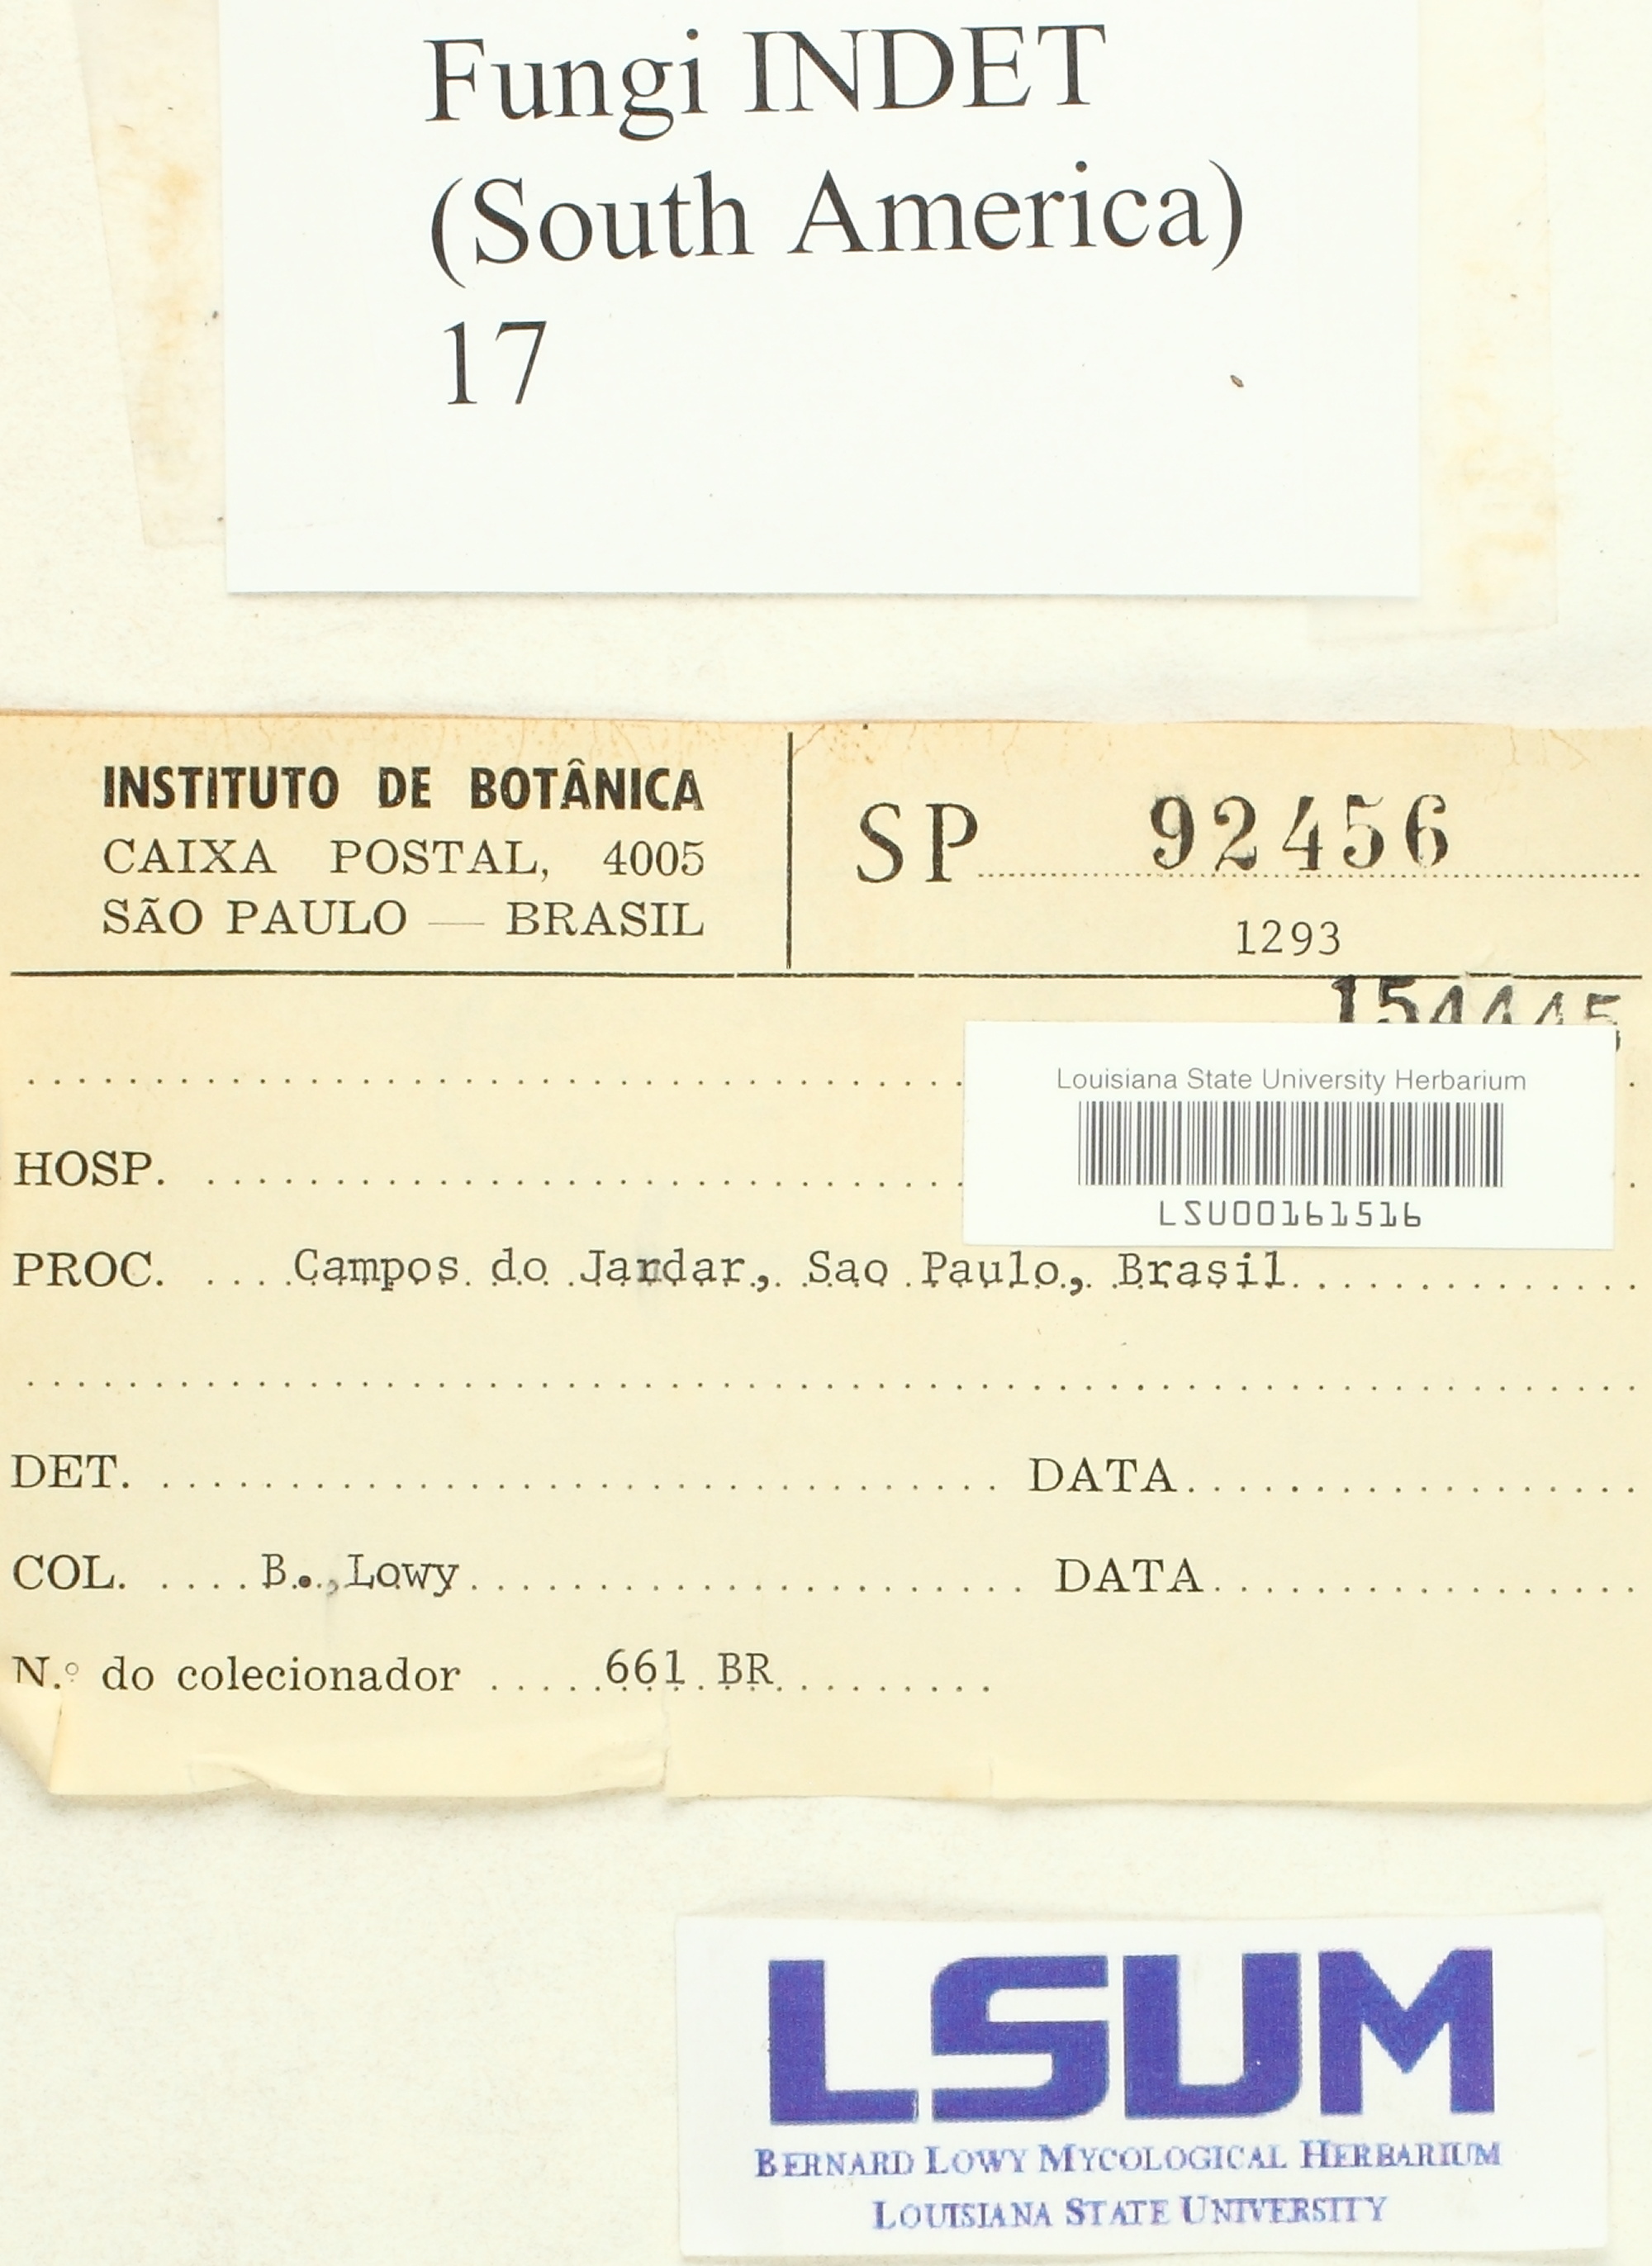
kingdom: Fungi
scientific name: Fungi
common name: Fungi
